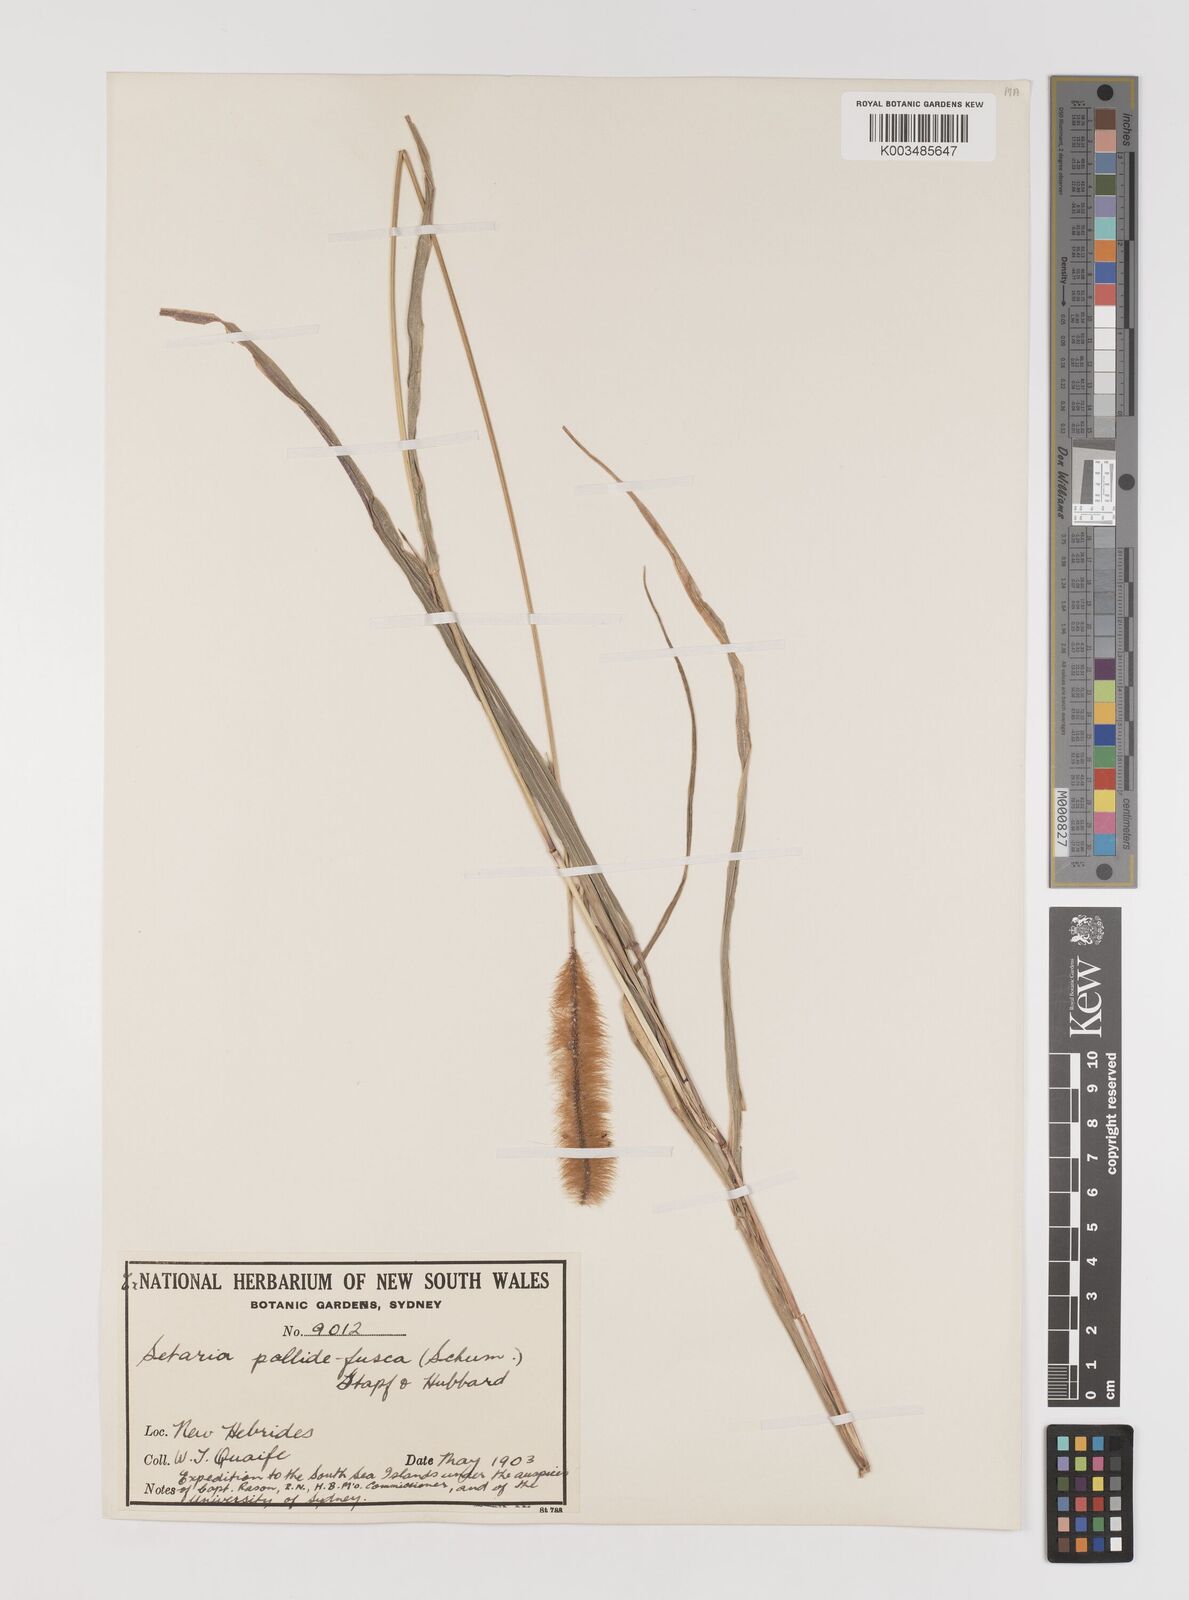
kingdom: Plantae
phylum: Tracheophyta
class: Liliopsida
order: Poales
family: Poaceae
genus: Setaria
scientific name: Setaria pumila
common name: Yellow bristle-grass
